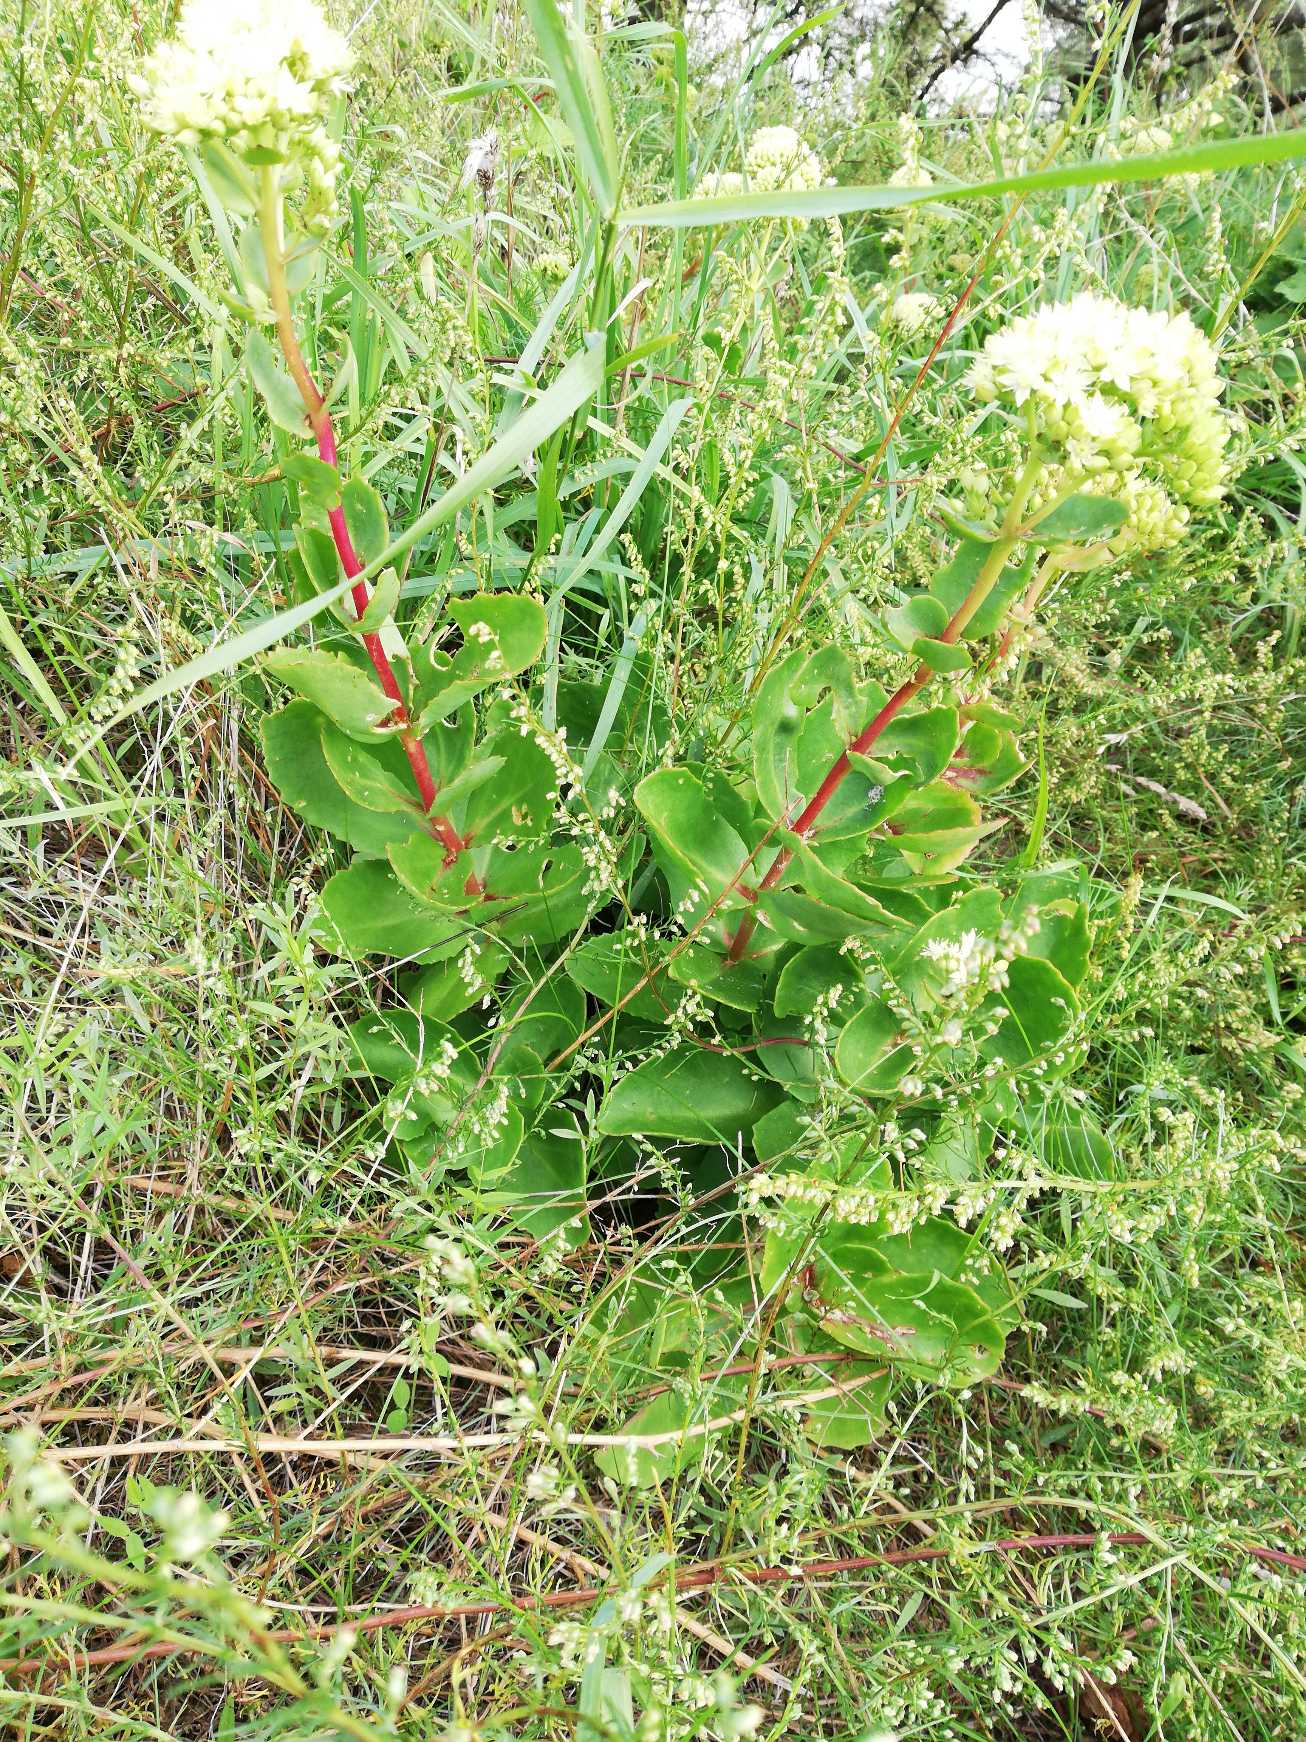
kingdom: Plantae
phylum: Tracheophyta
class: Magnoliopsida
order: Saxifragales
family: Crassulaceae
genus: Hylotelephium
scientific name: Hylotelephium telephium
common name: Sankthansurt
